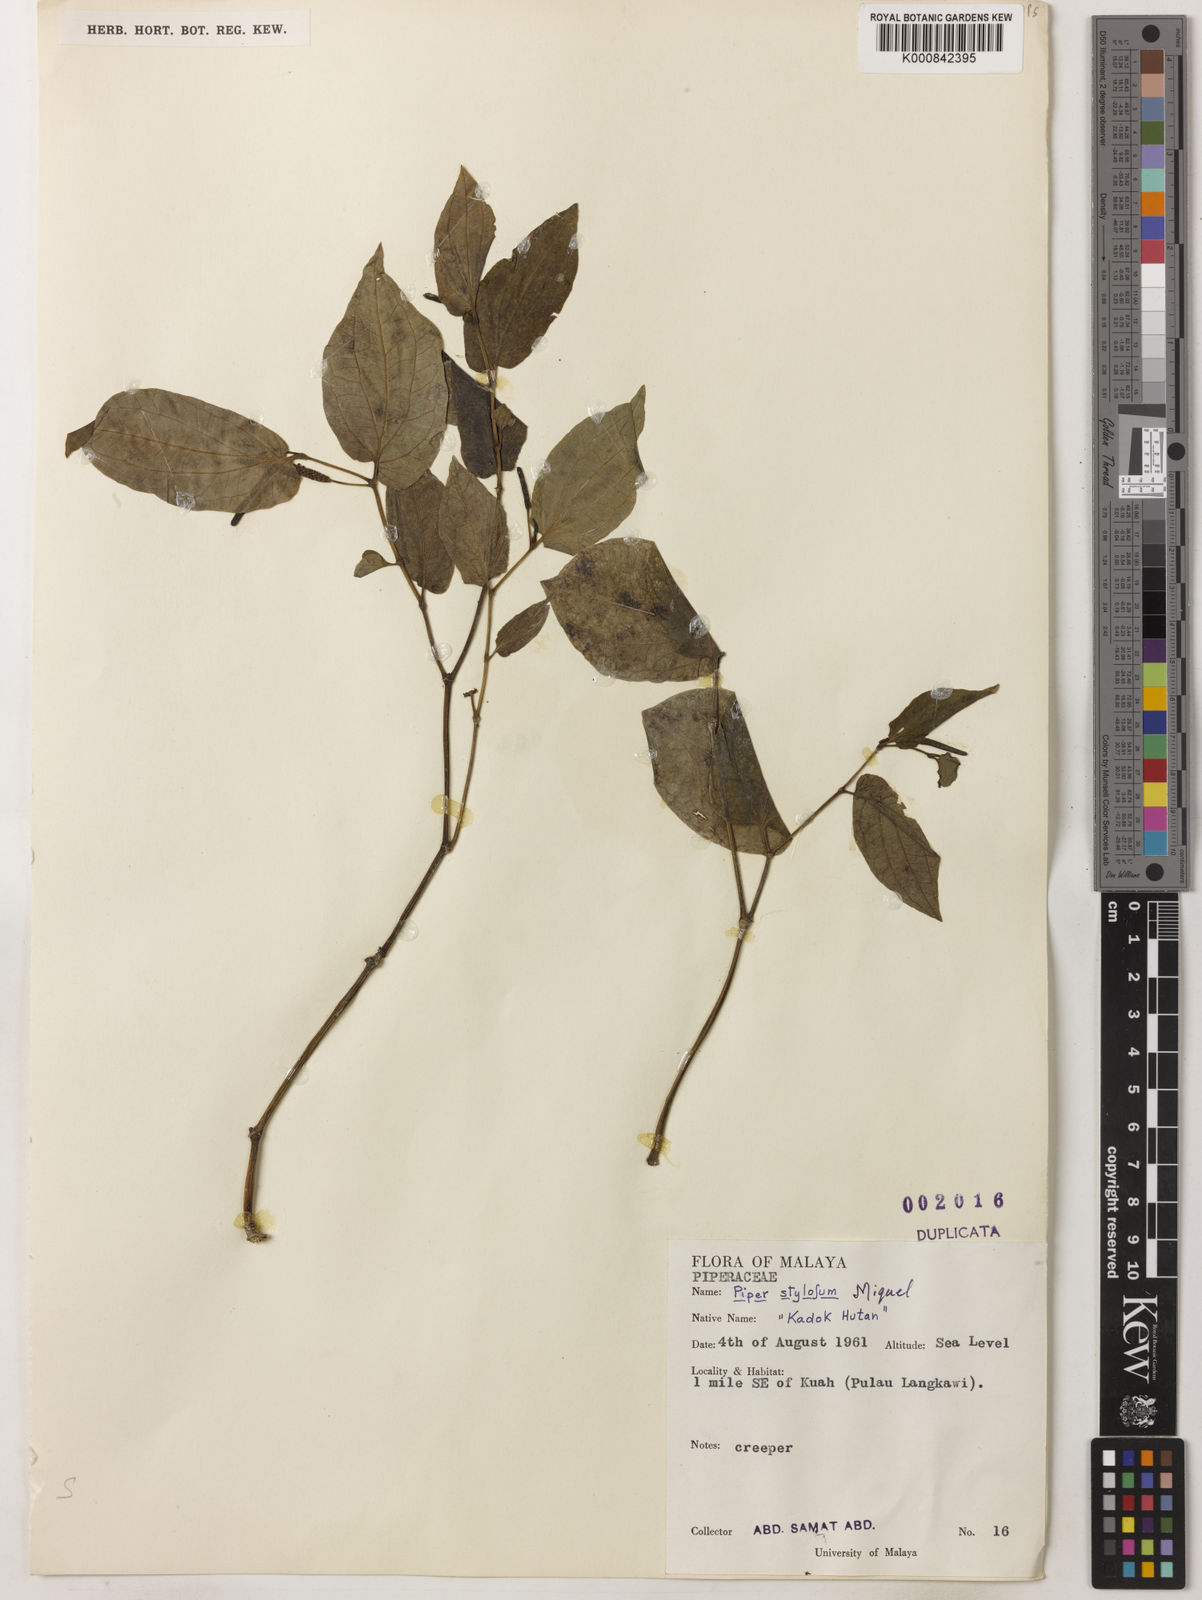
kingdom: Plantae
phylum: Tracheophyta
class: Magnoliopsida
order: Piperales
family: Piperaceae
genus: Piper
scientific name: Piper rostratum
